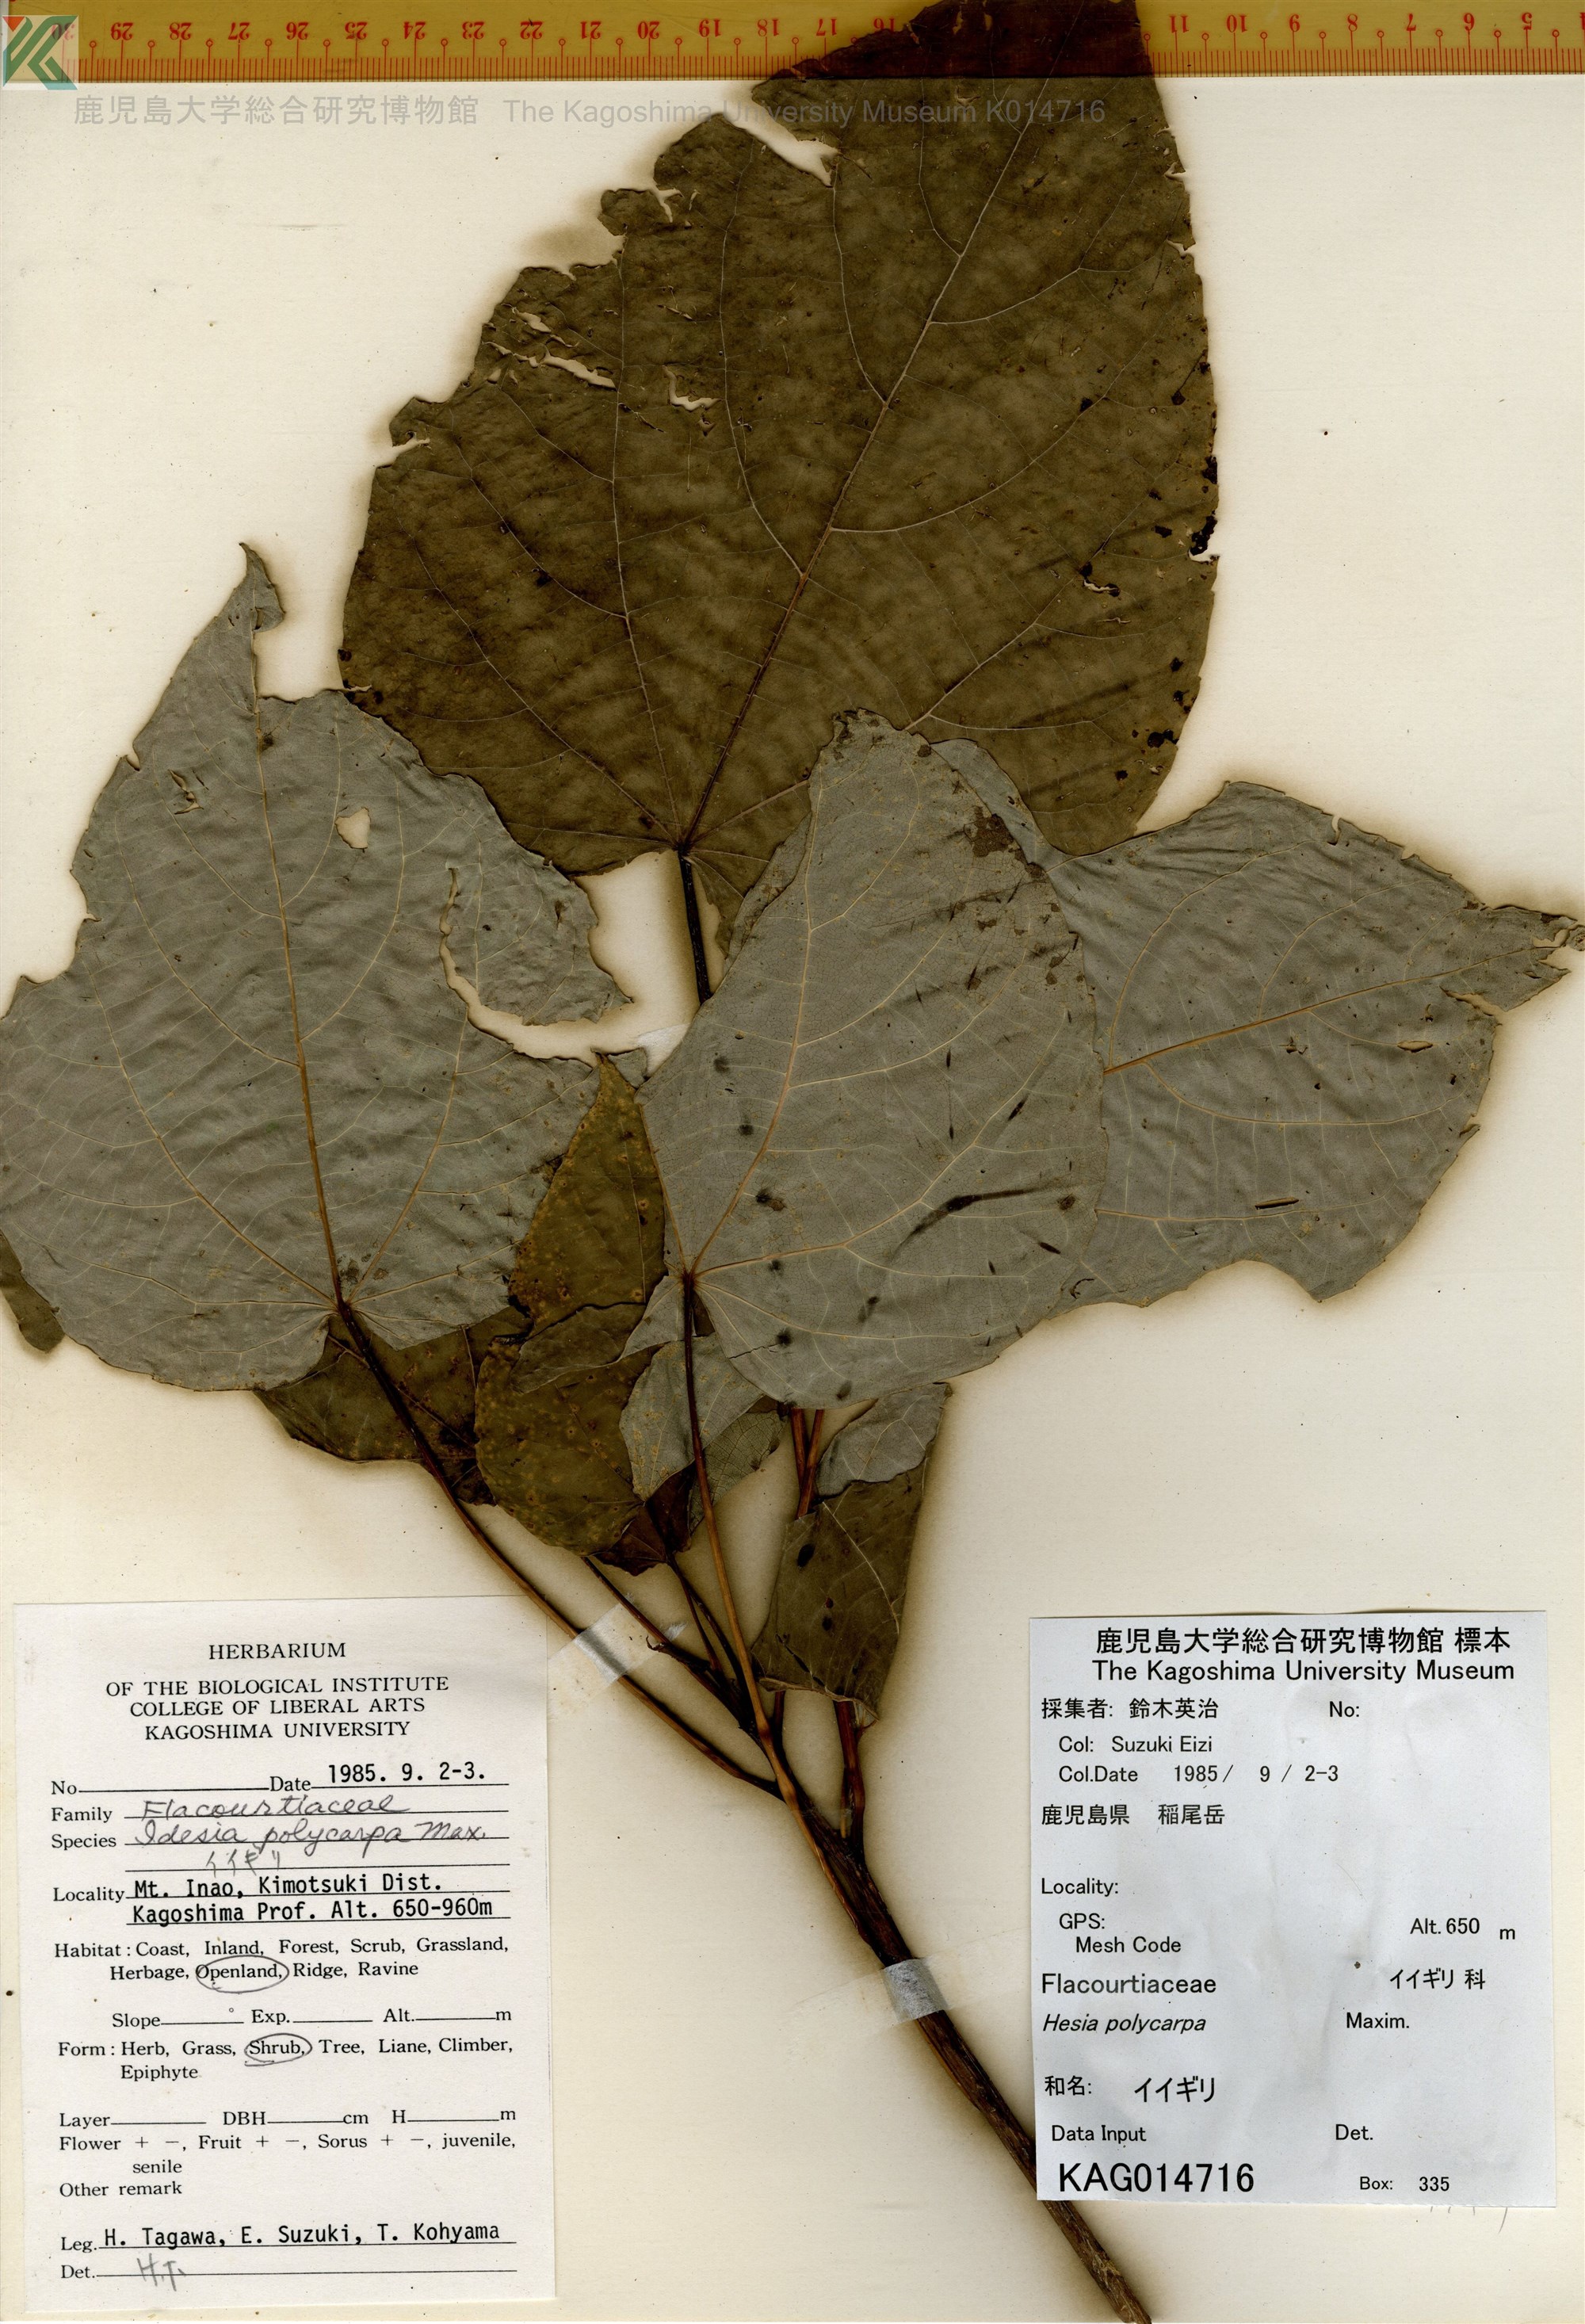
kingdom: Plantae
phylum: Tracheophyta
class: Magnoliopsida
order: Malpighiales
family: Salicaceae
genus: Idesia
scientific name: Idesia polycarpa
